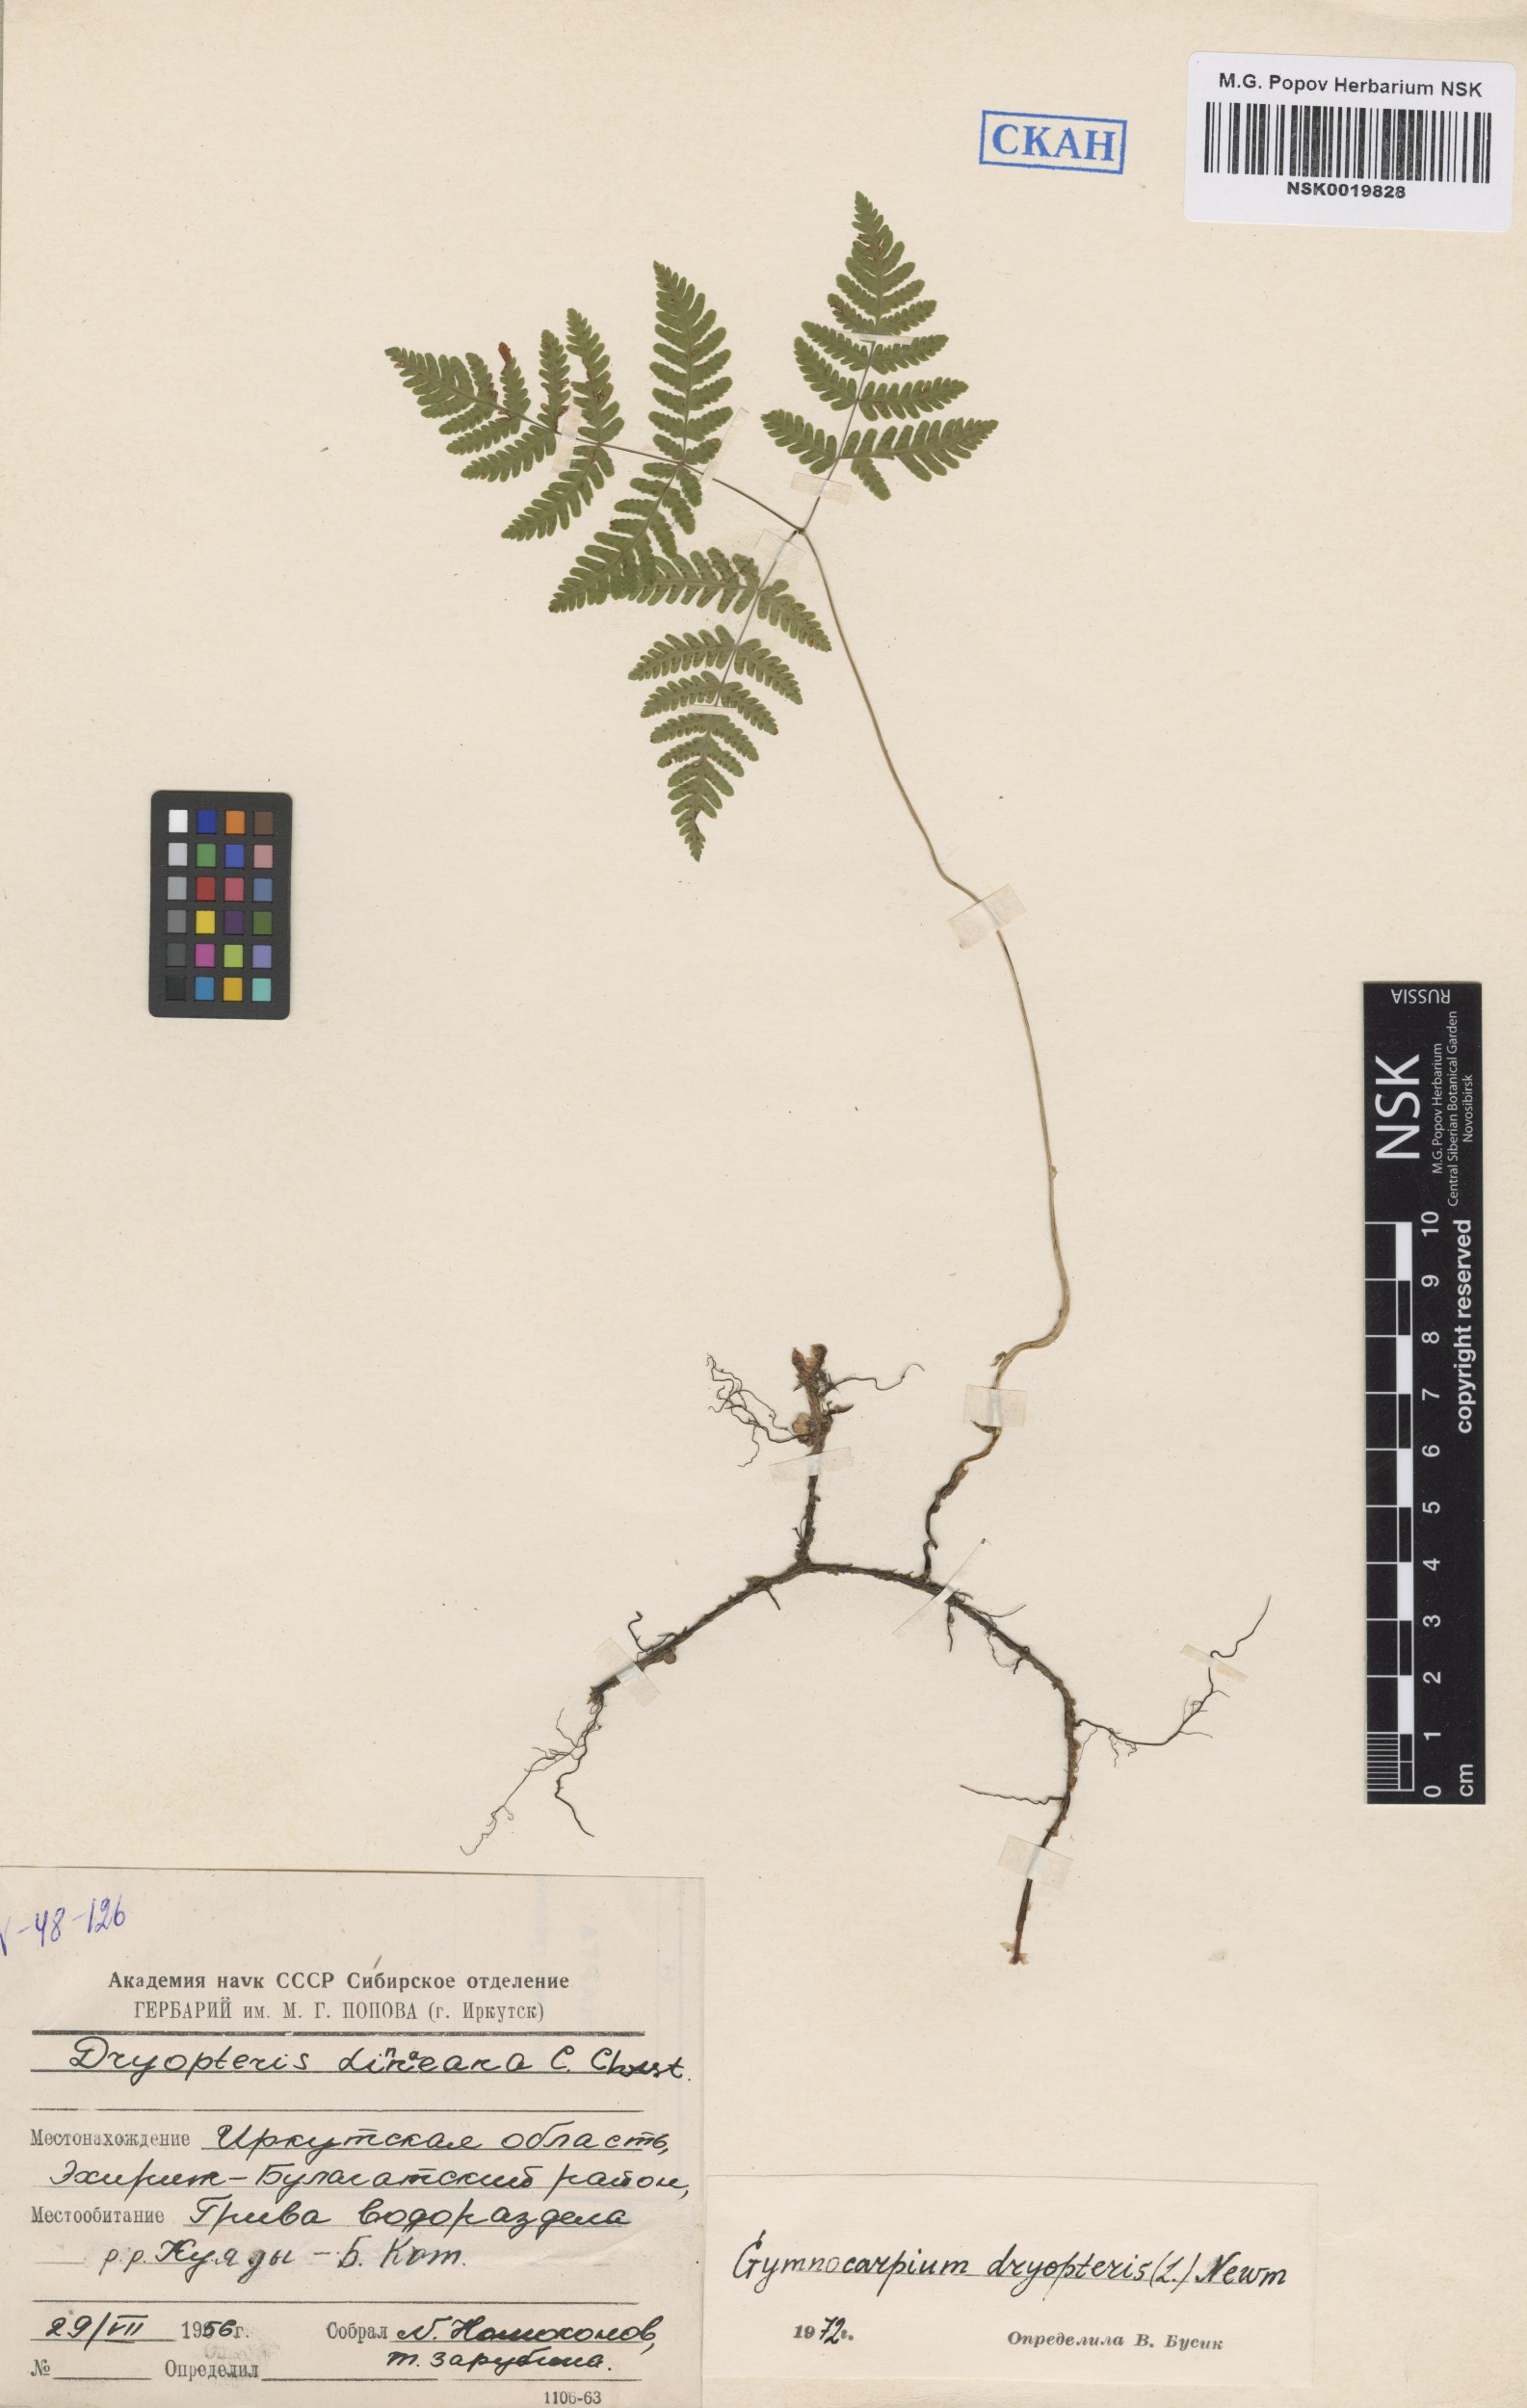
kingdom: Plantae
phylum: Tracheophyta
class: Polypodiopsida
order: Polypodiales
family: Cystopteridaceae
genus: Gymnocarpium
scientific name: Gymnocarpium dryopteris
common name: Oak fern
